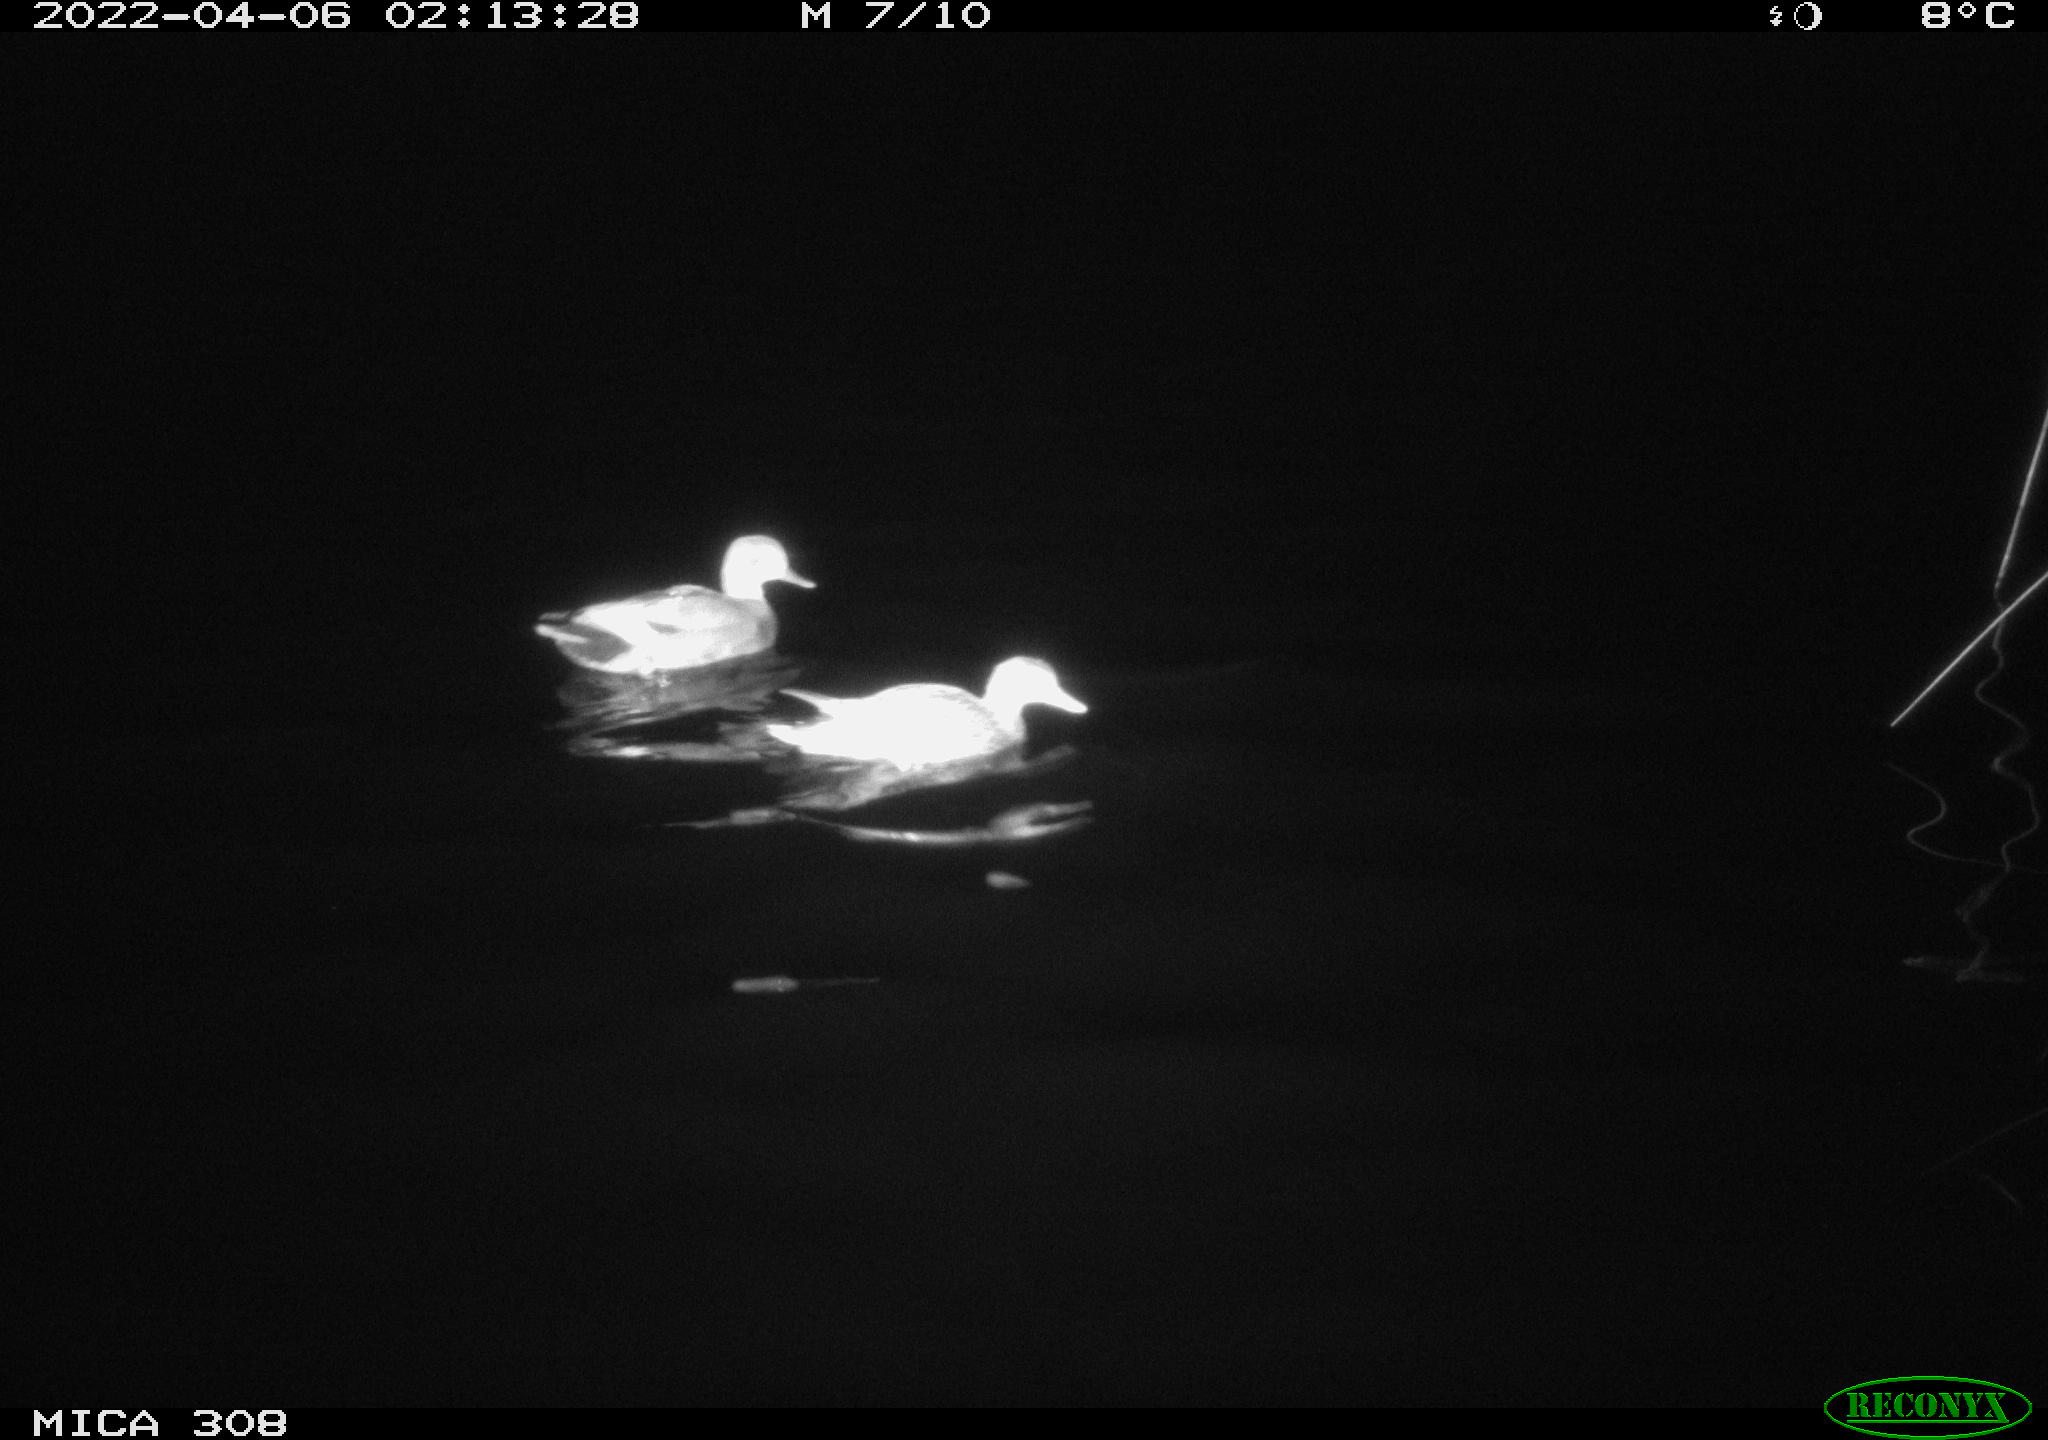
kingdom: Animalia
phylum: Chordata
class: Aves
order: Anseriformes
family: Anatidae
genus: Mareca
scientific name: Mareca strepera
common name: Gadwall
